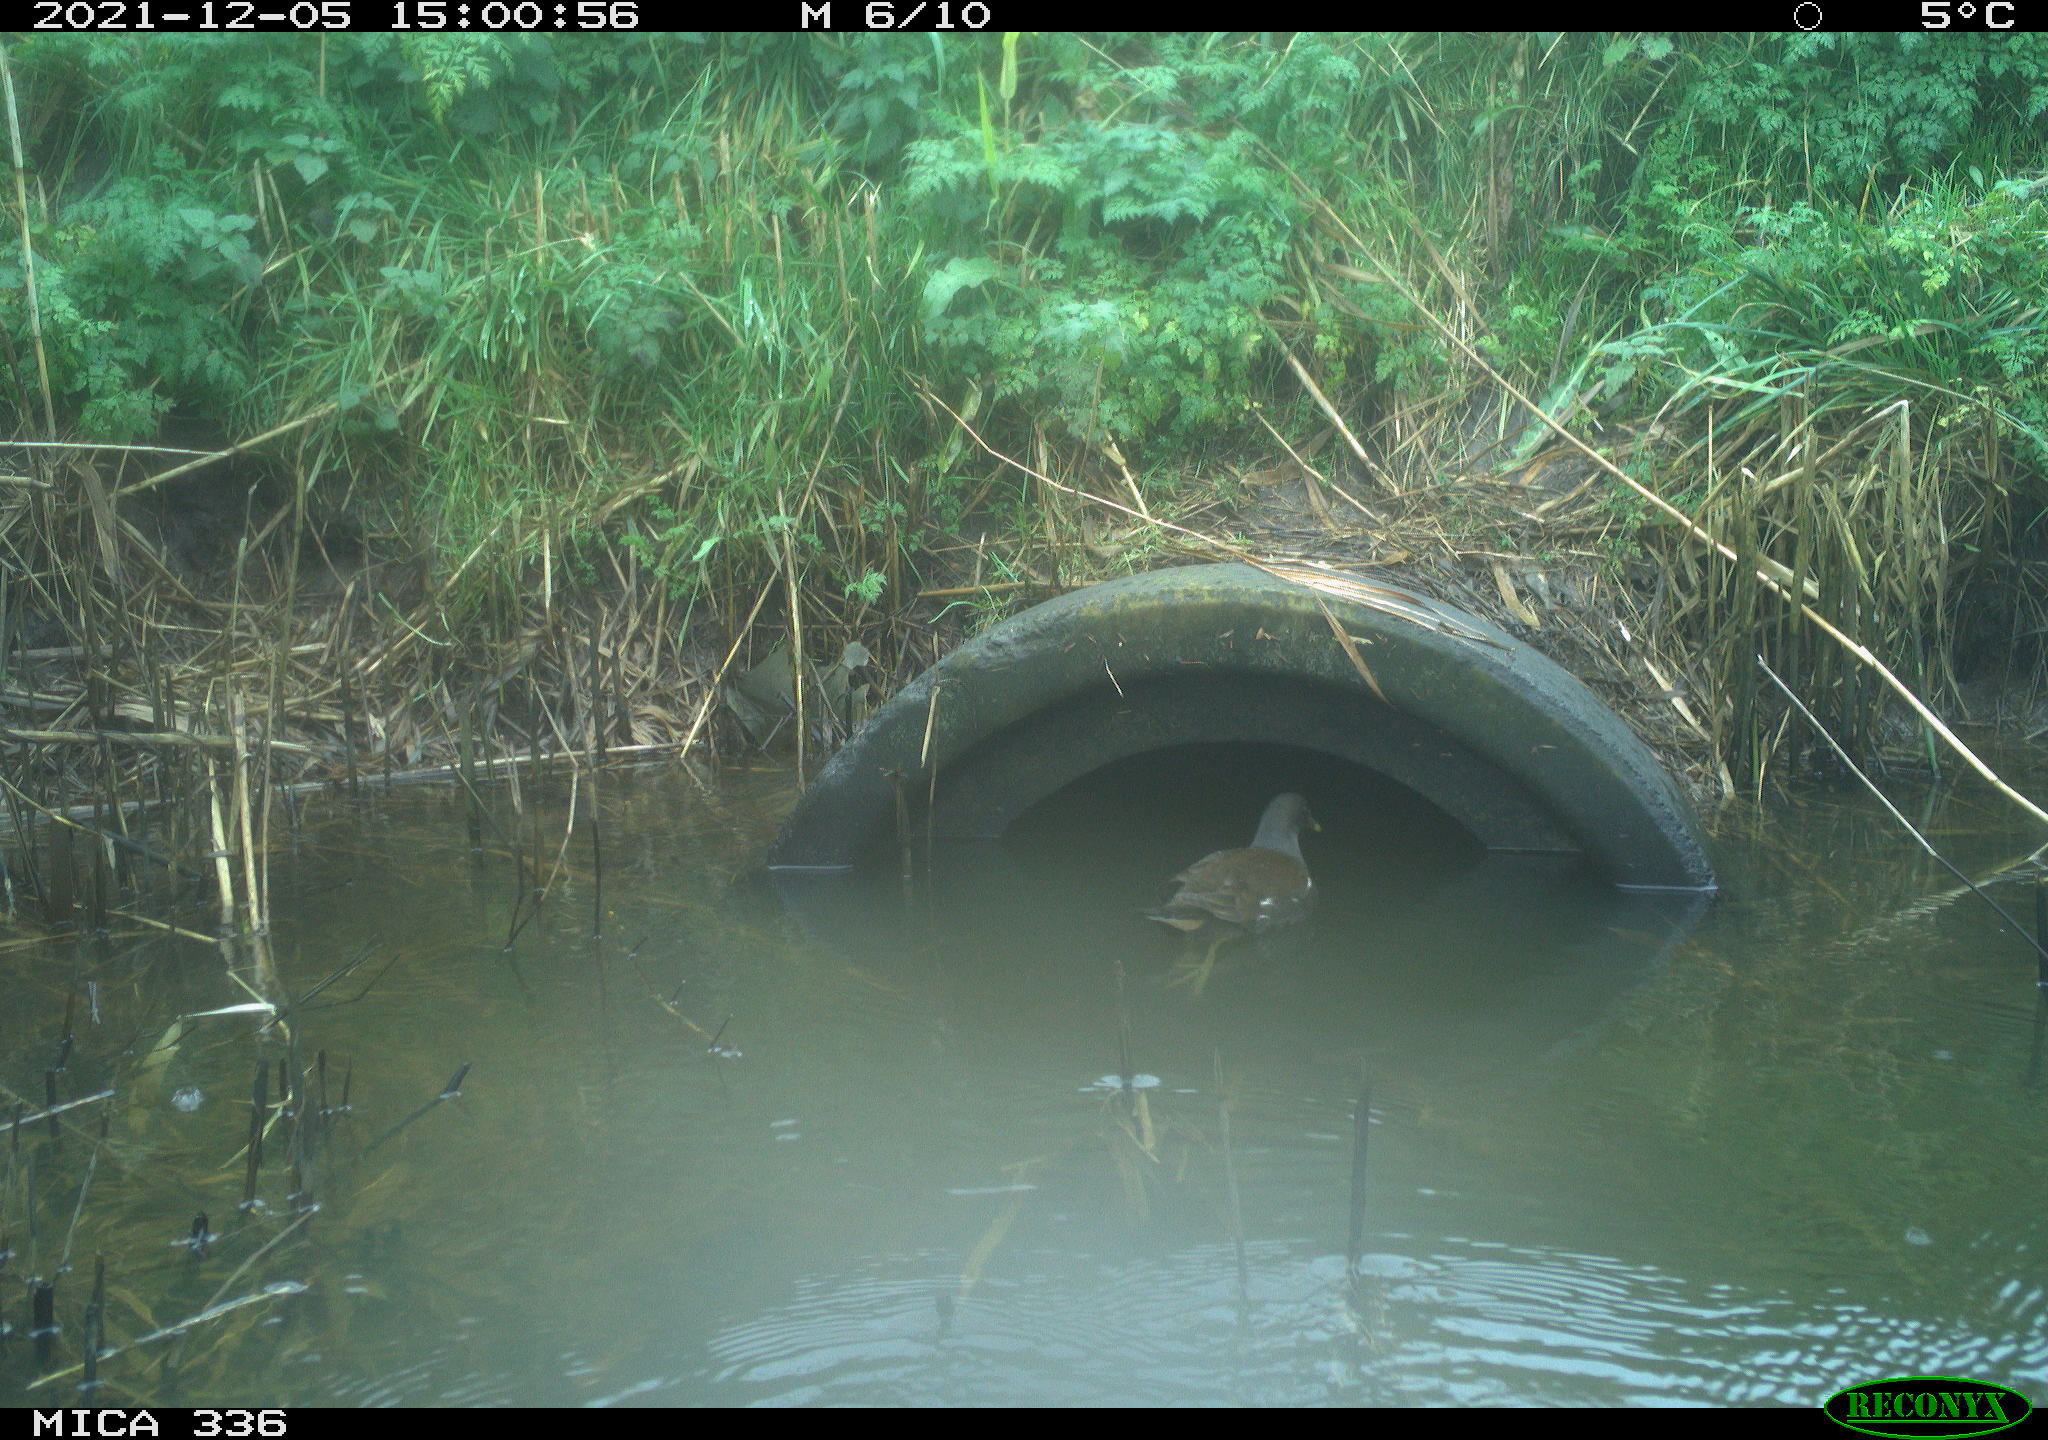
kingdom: Animalia
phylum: Chordata
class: Aves
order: Gruiformes
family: Rallidae
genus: Gallinula
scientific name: Gallinula chloropus
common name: Common moorhen
